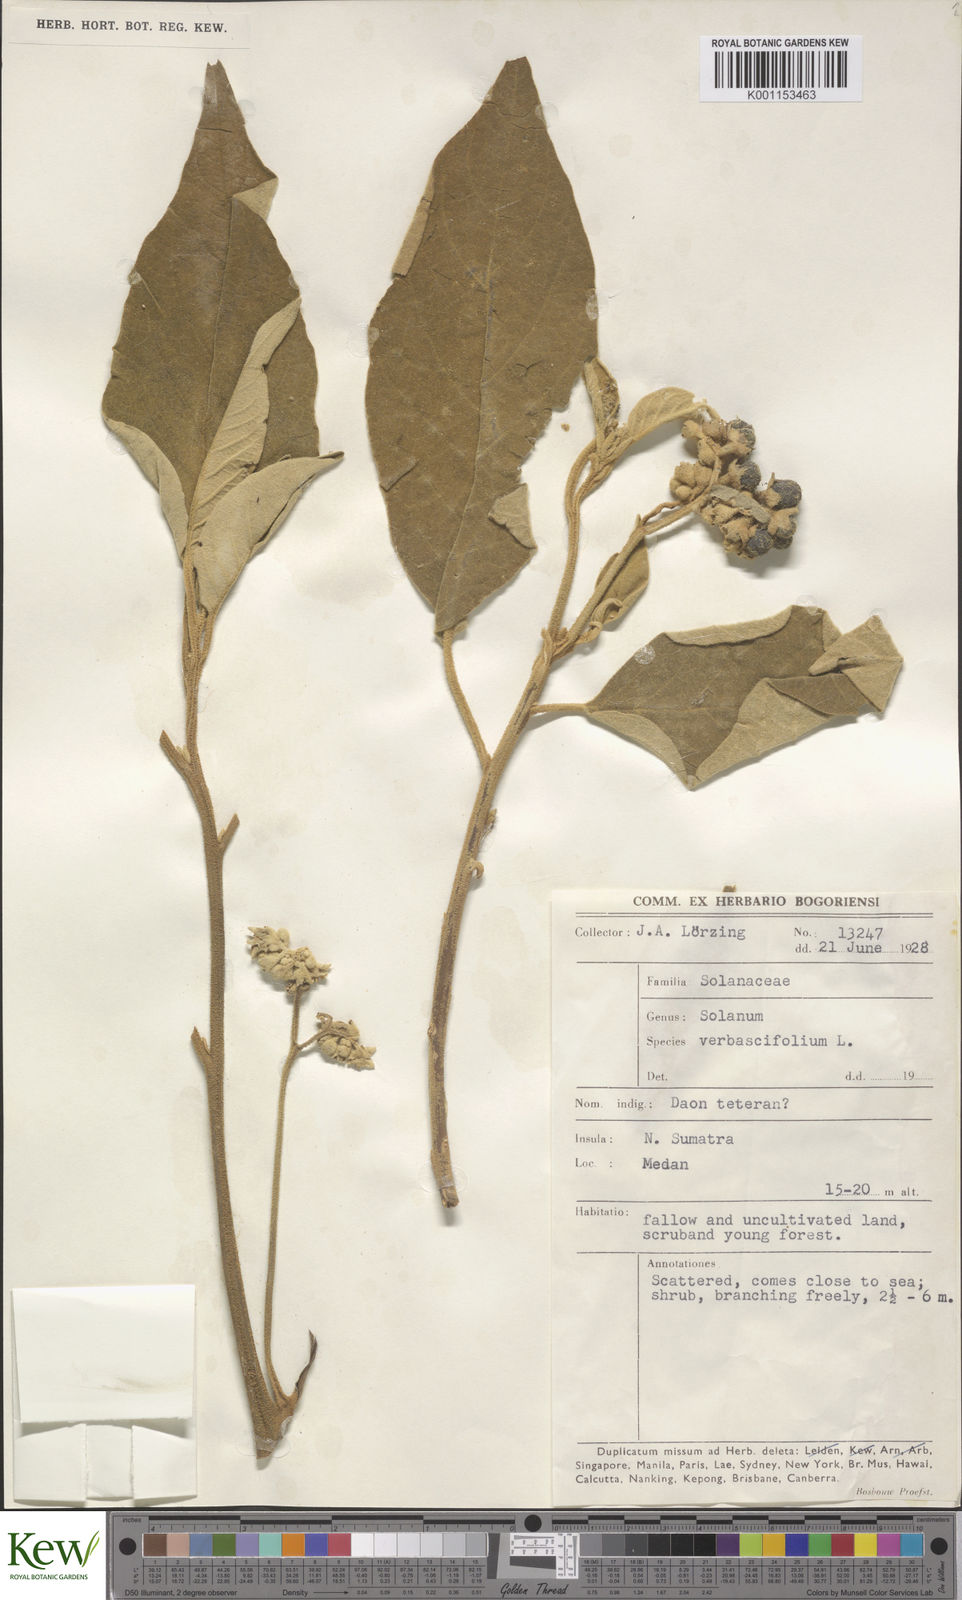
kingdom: Plantae
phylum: Tracheophyta
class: Magnoliopsida
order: Solanales
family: Solanaceae
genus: Solanum
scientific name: Solanum donianum
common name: Mullein nightshade
